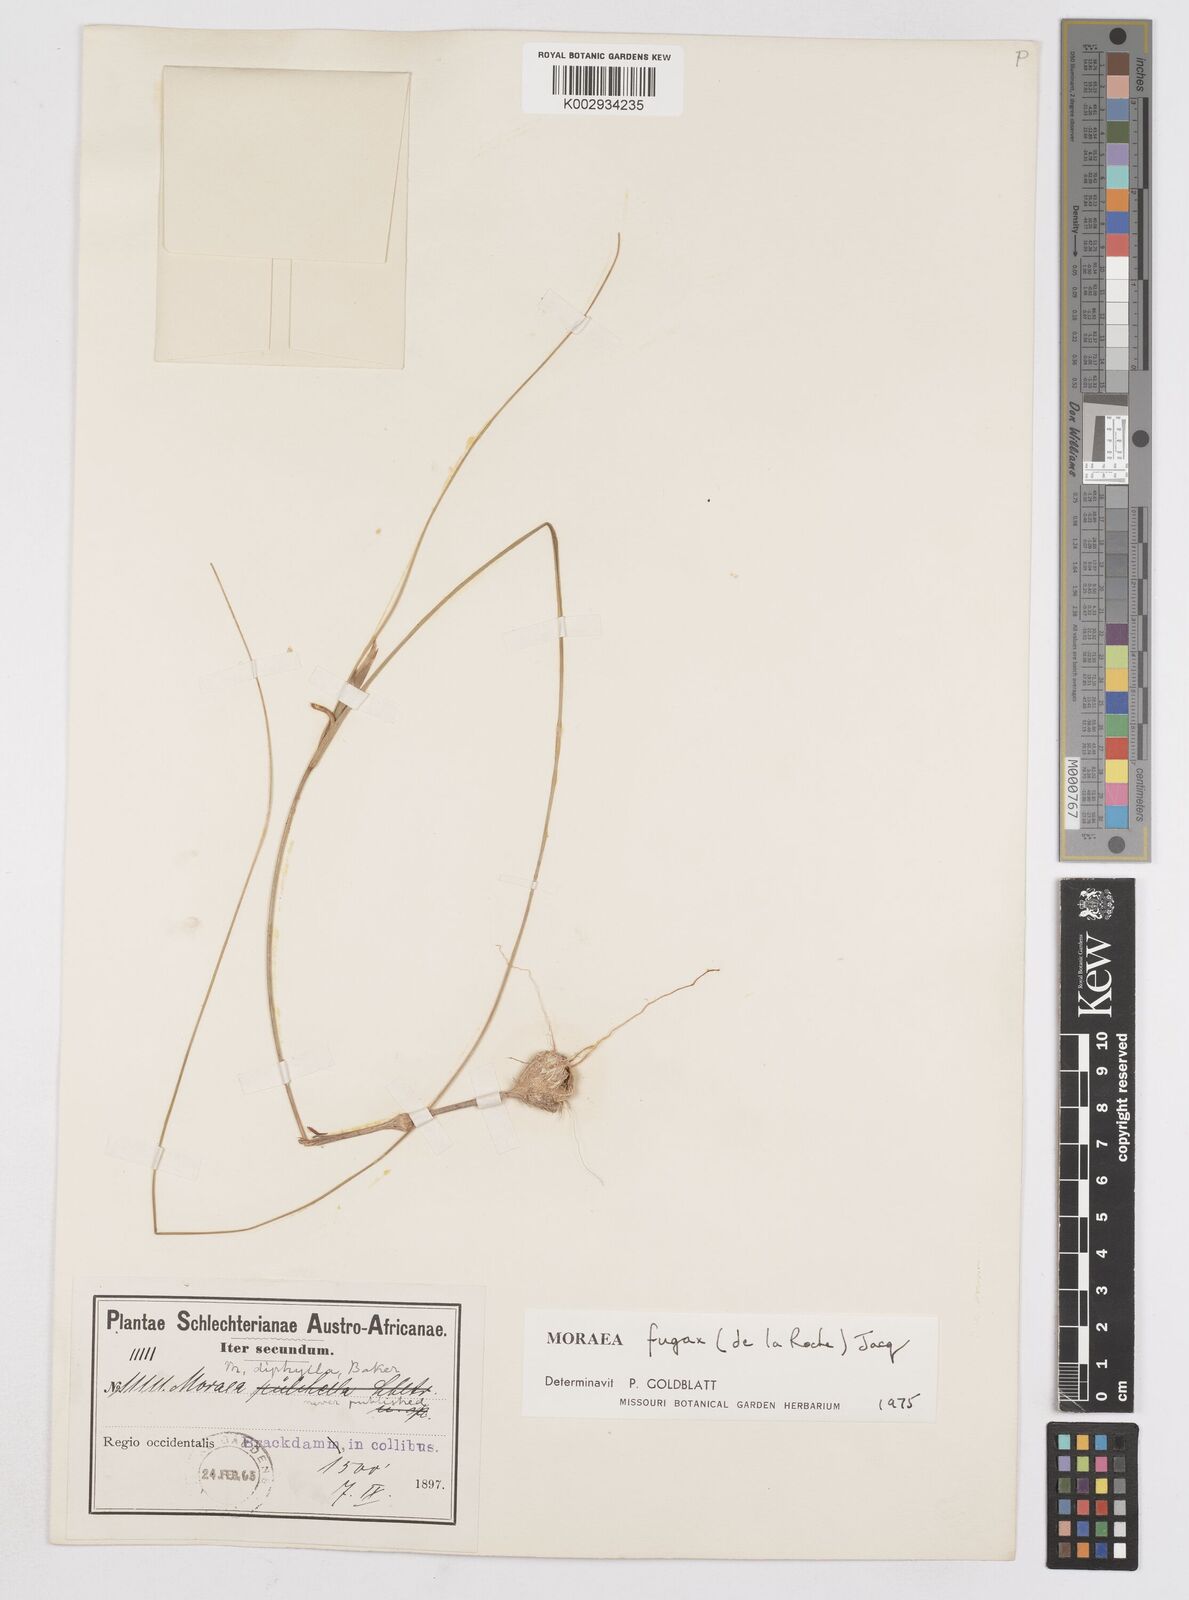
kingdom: Plantae
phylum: Tracheophyta
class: Liliopsida
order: Asparagales
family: Iridaceae
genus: Moraea
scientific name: Moraea fugax
